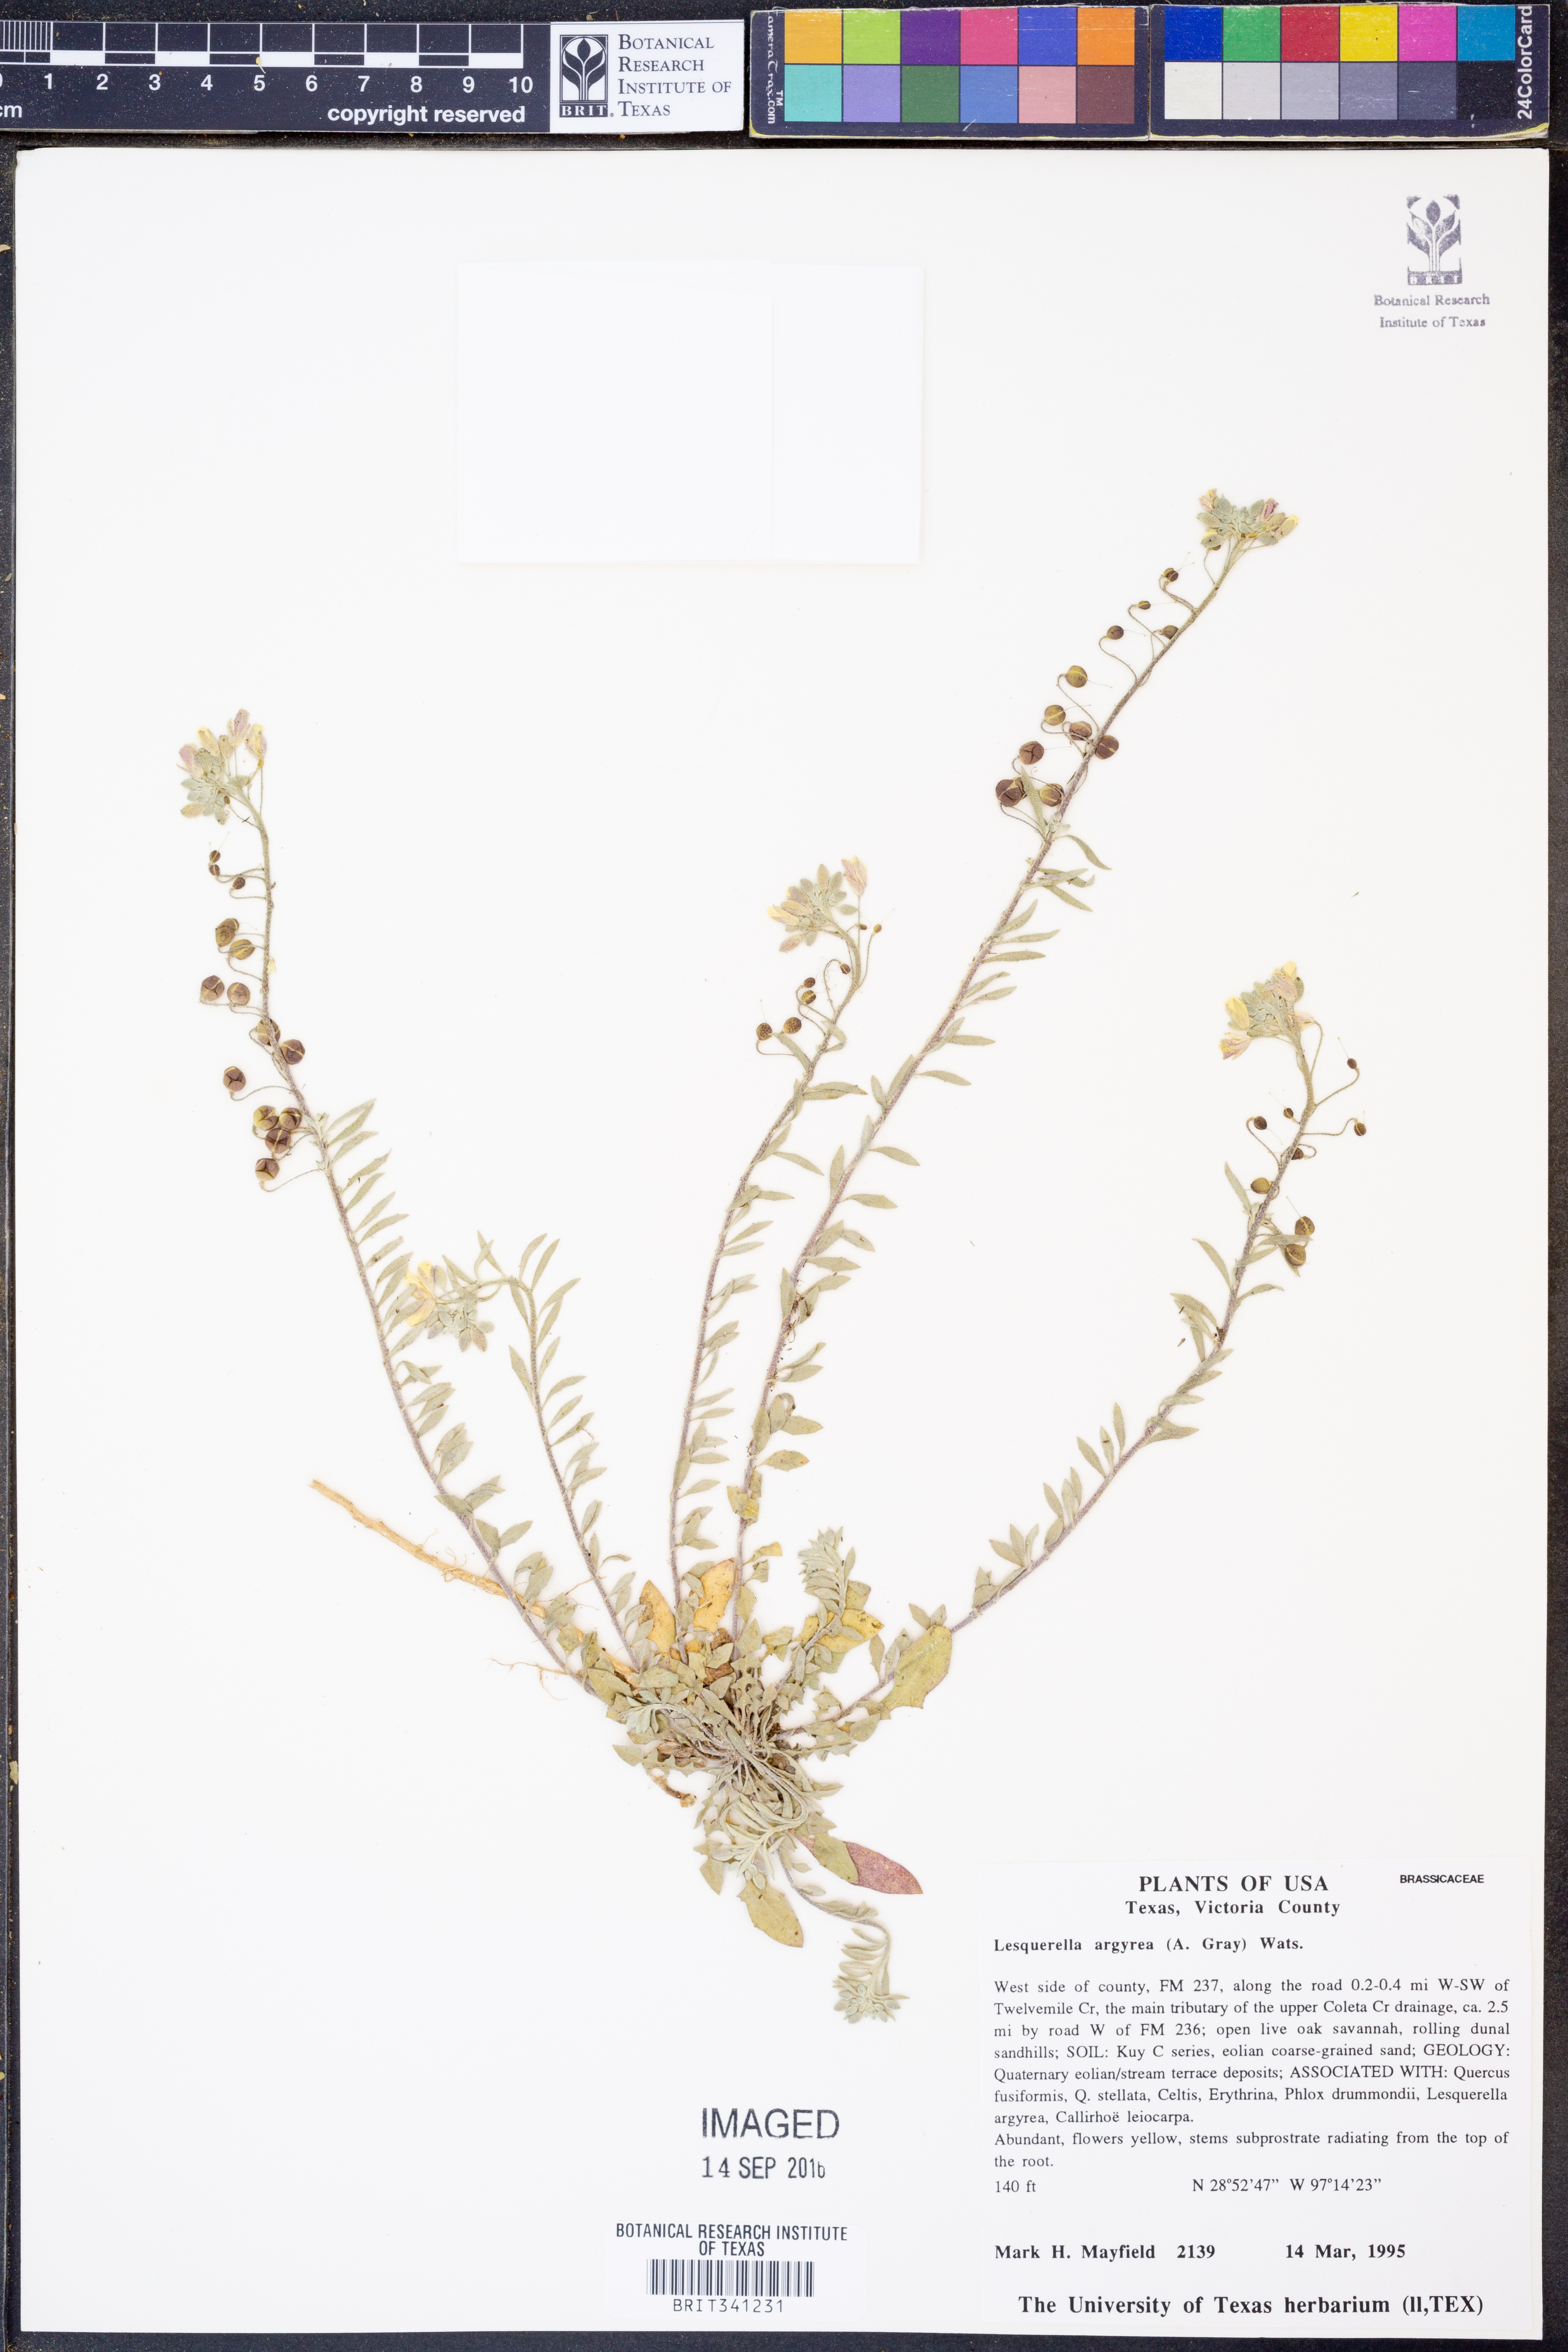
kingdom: Plantae
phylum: Tracheophyta
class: Magnoliopsida
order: Brassicales
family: Brassicaceae
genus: Physaria
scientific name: Physaria argyraea
